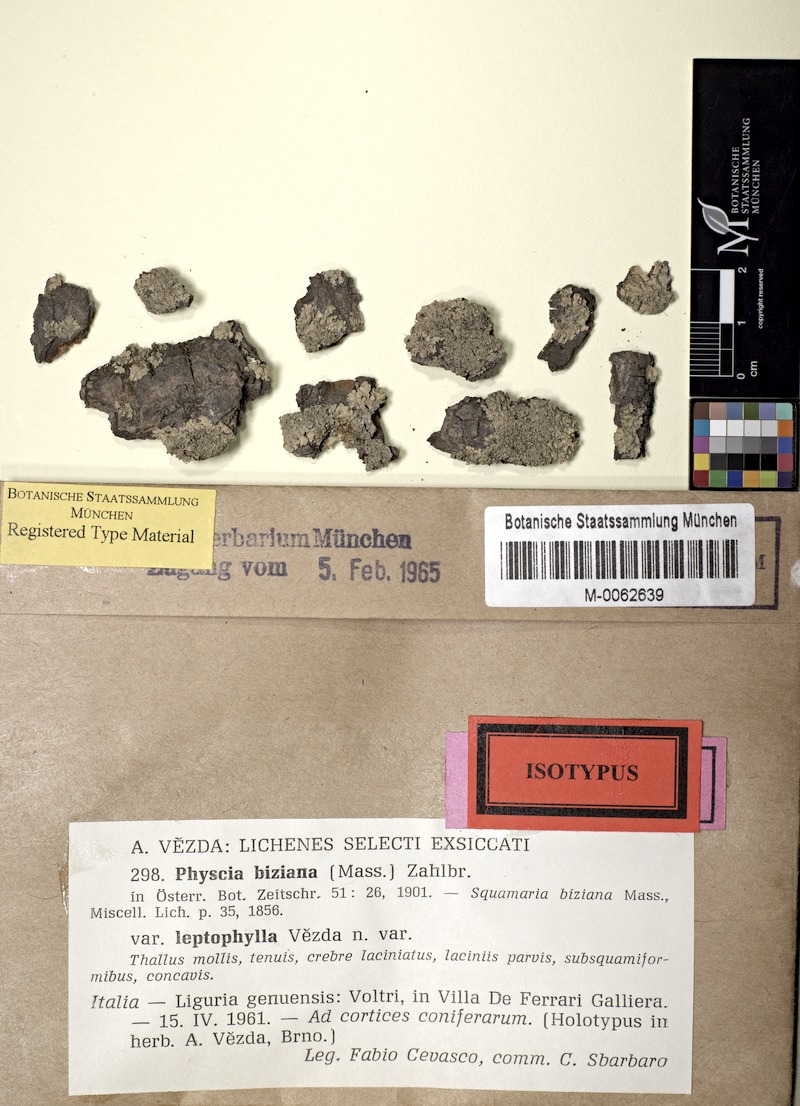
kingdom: Fungi
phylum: Ascomycota
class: Lecanoromycetes
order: Caliciales
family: Physciaceae
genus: Physcia
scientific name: Physcia biziana
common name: Frosted rosette lichen
